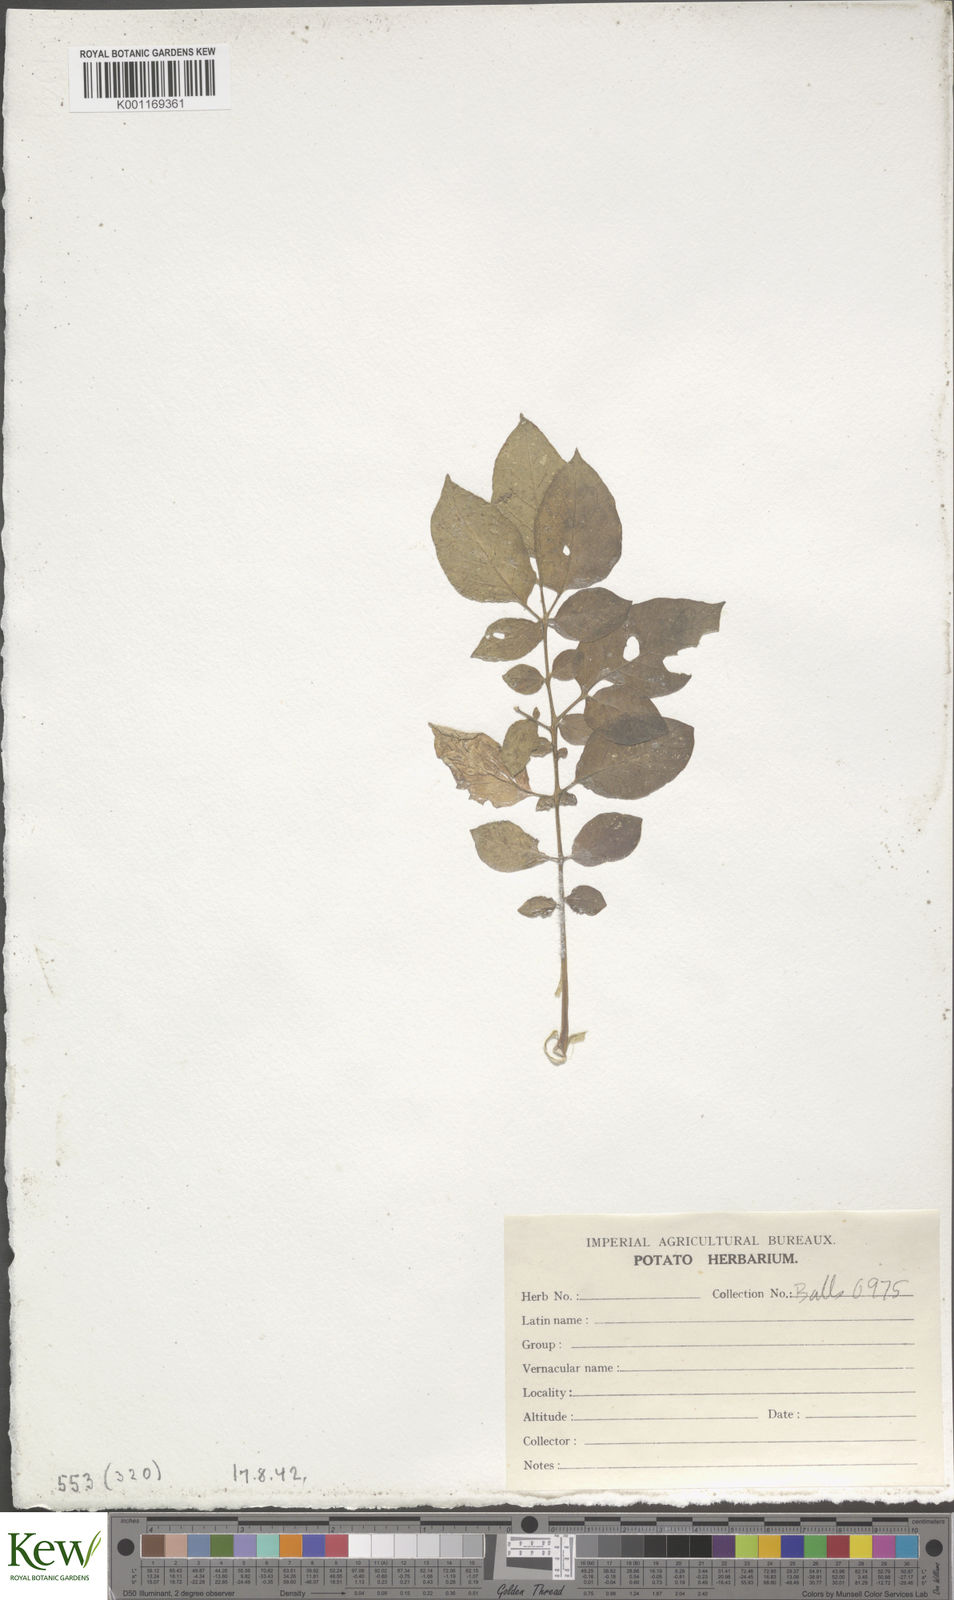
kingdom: Plantae
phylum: Tracheophyta
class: Magnoliopsida
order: Solanales
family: Solanaceae
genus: Solanum
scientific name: Solanum chaucha
